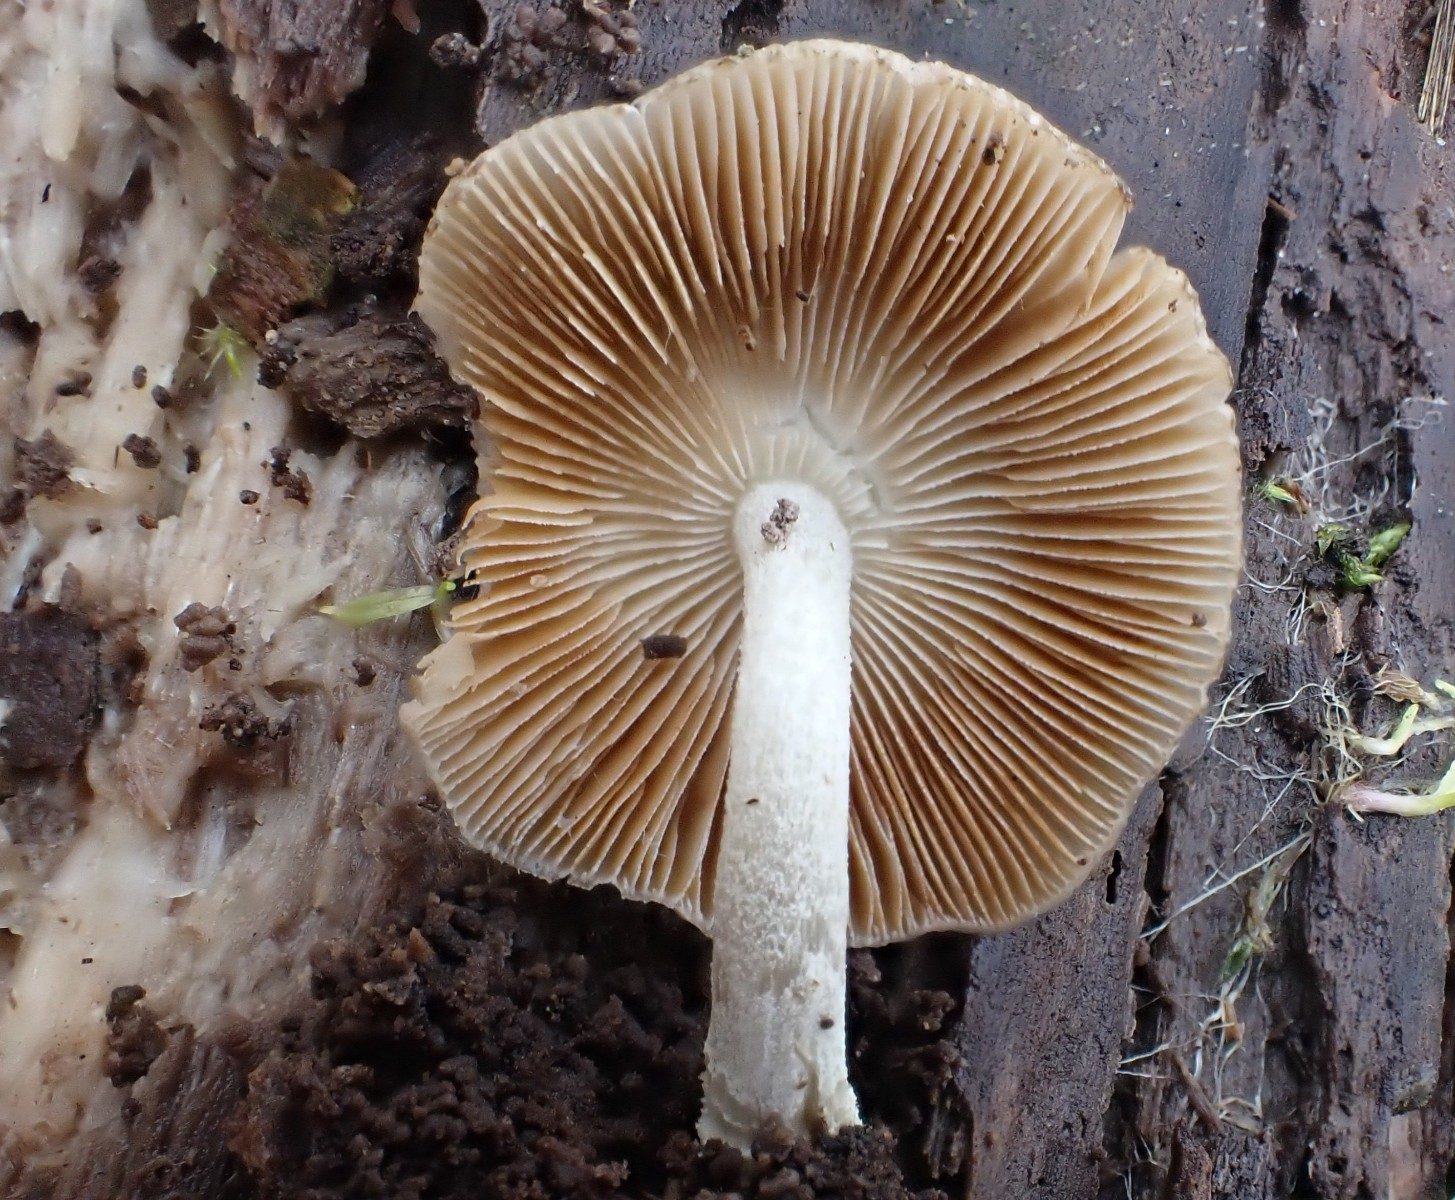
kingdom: Fungi
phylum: Basidiomycota
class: Agaricomycetes
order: Agaricales
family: Bolbitiaceae
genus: Bolbitius
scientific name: Bolbitius reticulatus
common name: netåret gulhat
